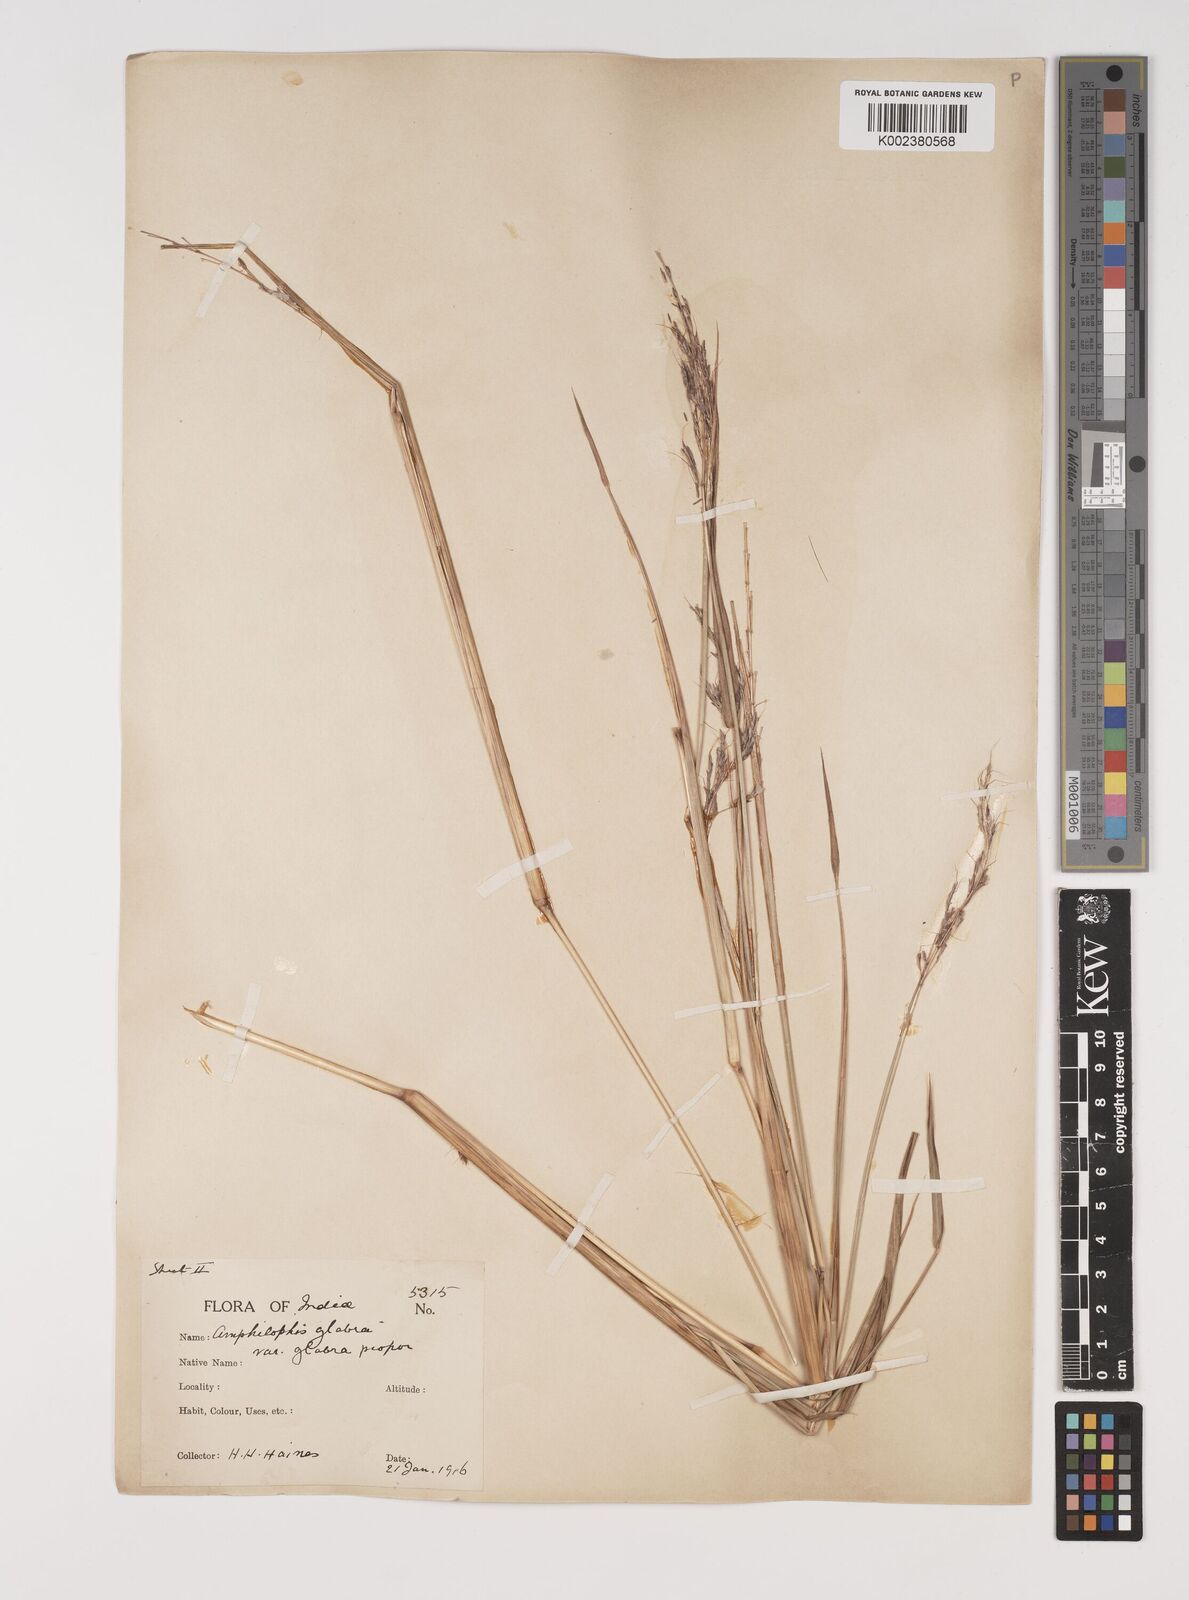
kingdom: Plantae
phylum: Tracheophyta
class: Liliopsida
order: Poales
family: Poaceae
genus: Bothriochloa
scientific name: Bothriochloa bladhii
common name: Caucasian bluestem
